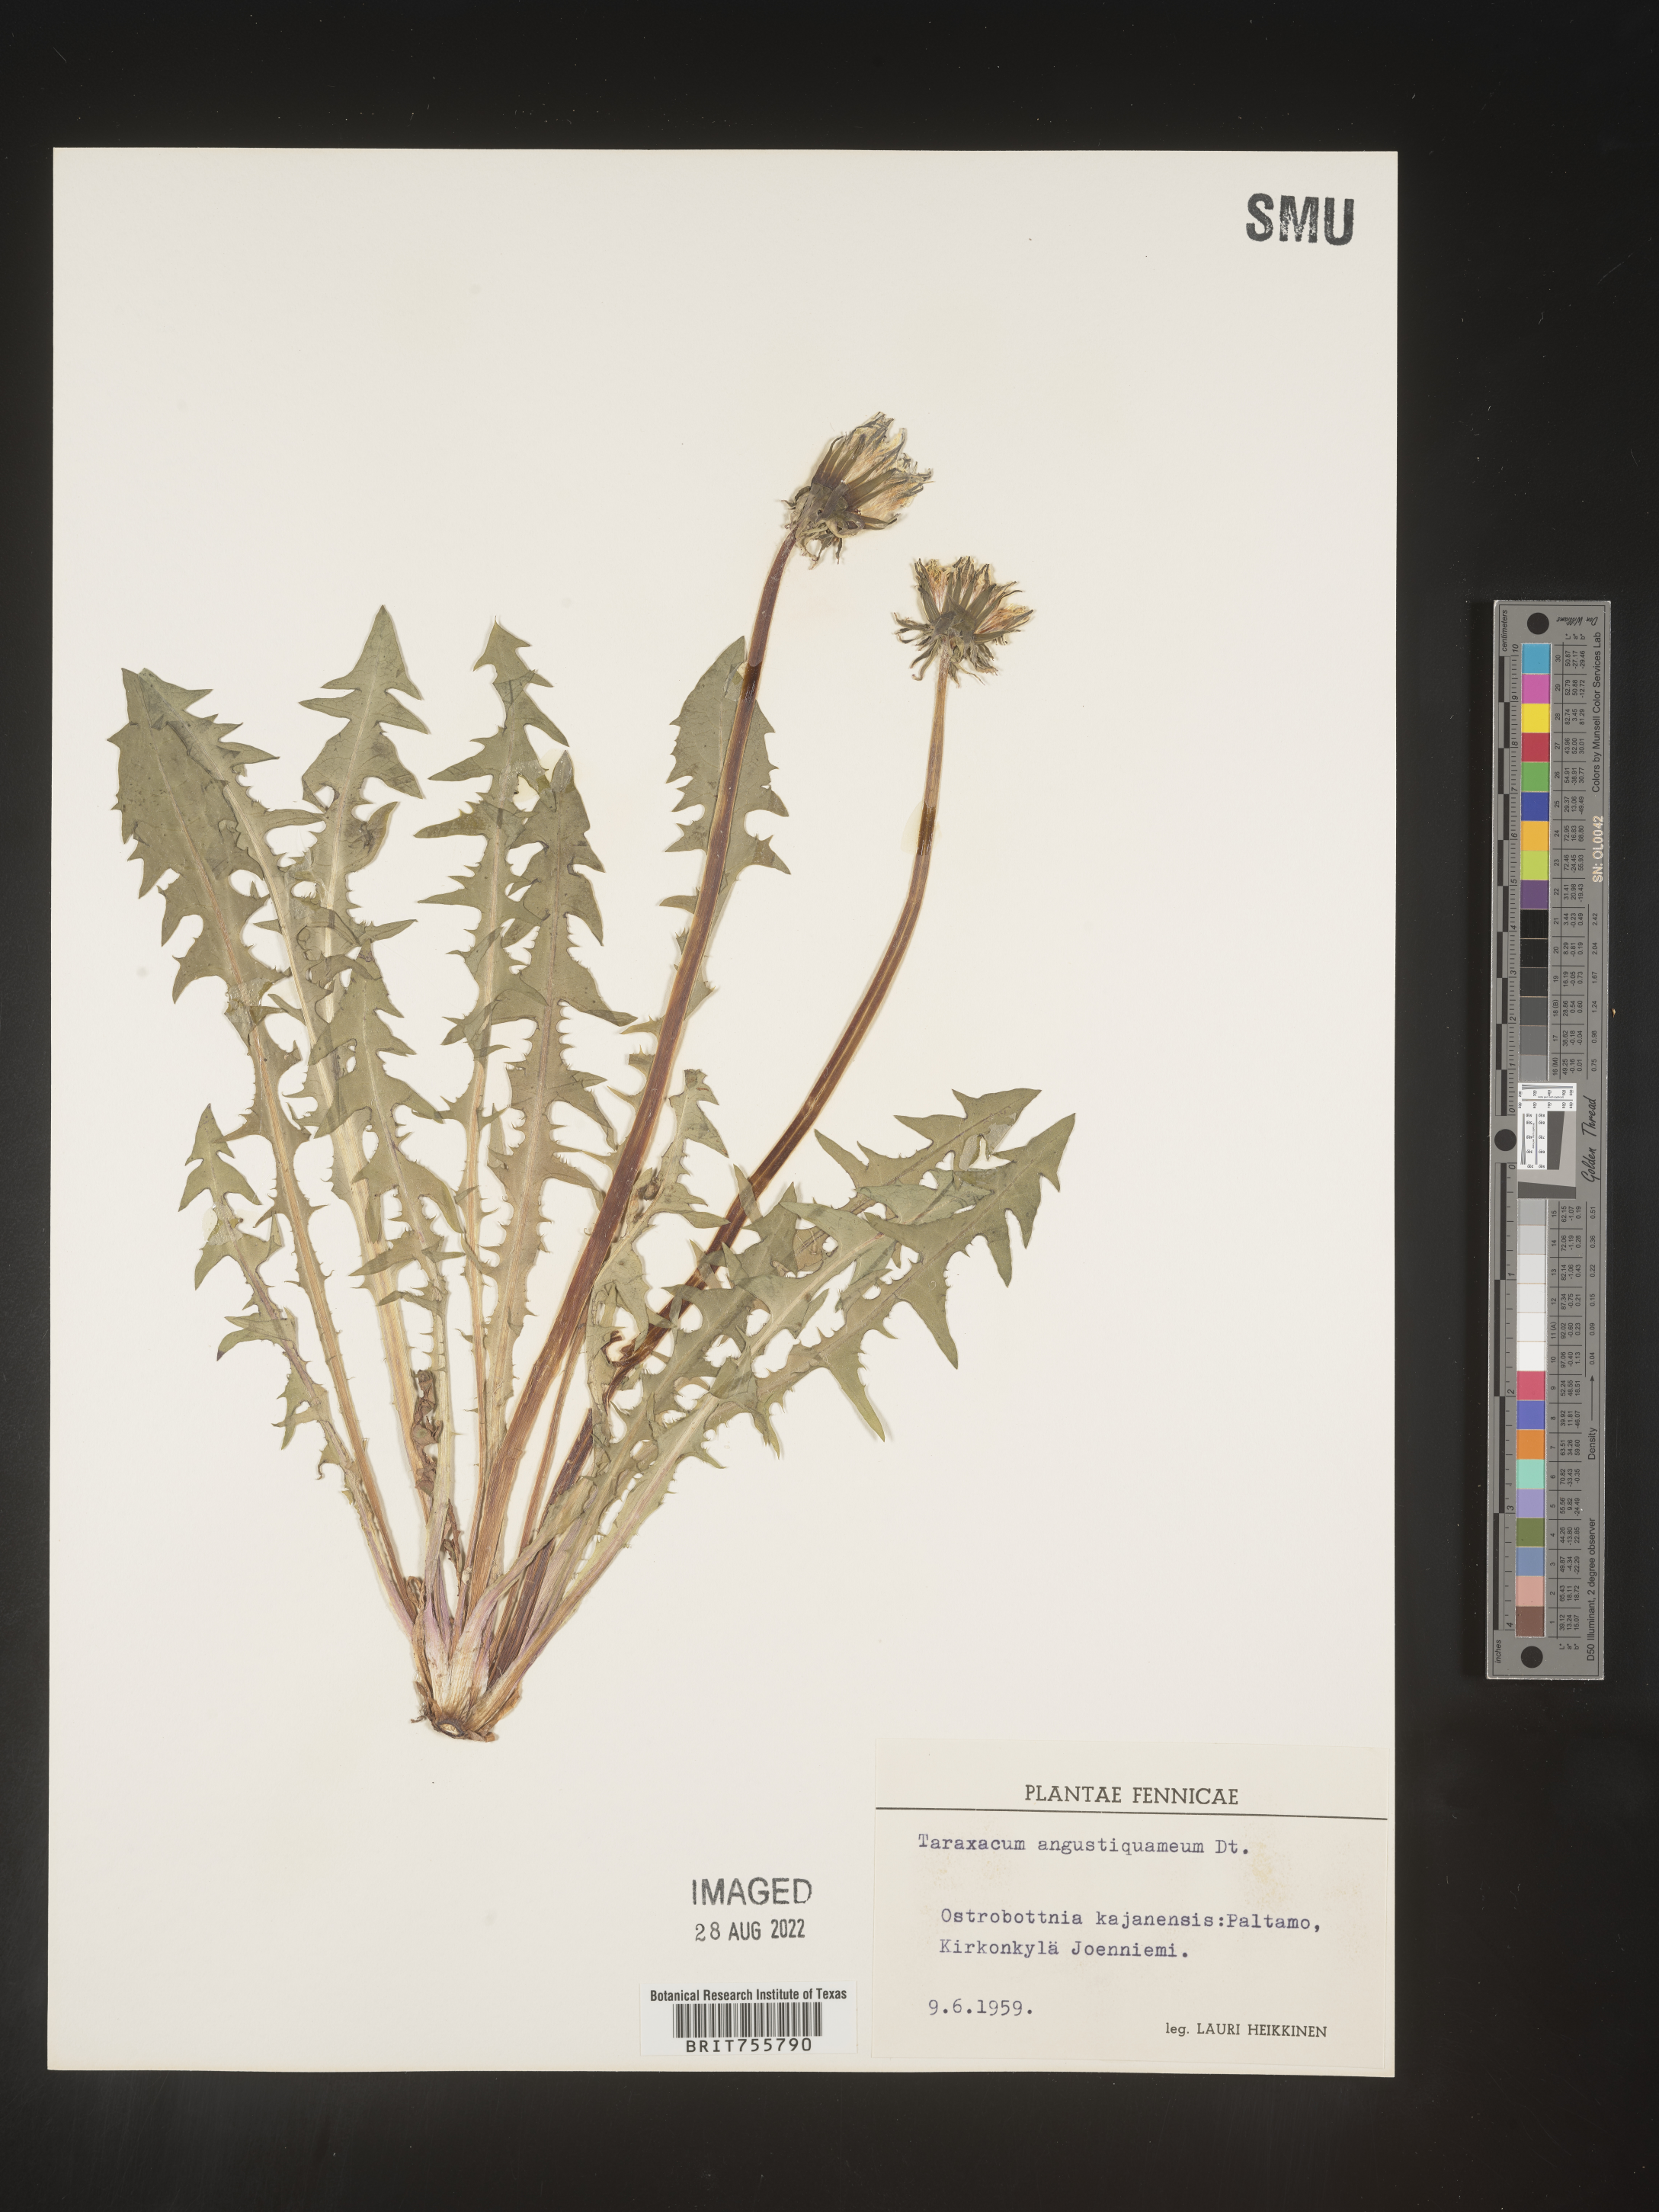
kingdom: Plantae
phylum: Tracheophyta
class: Magnoliopsida
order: Asterales
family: Asteraceae
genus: Taraxacum
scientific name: Taraxacum
